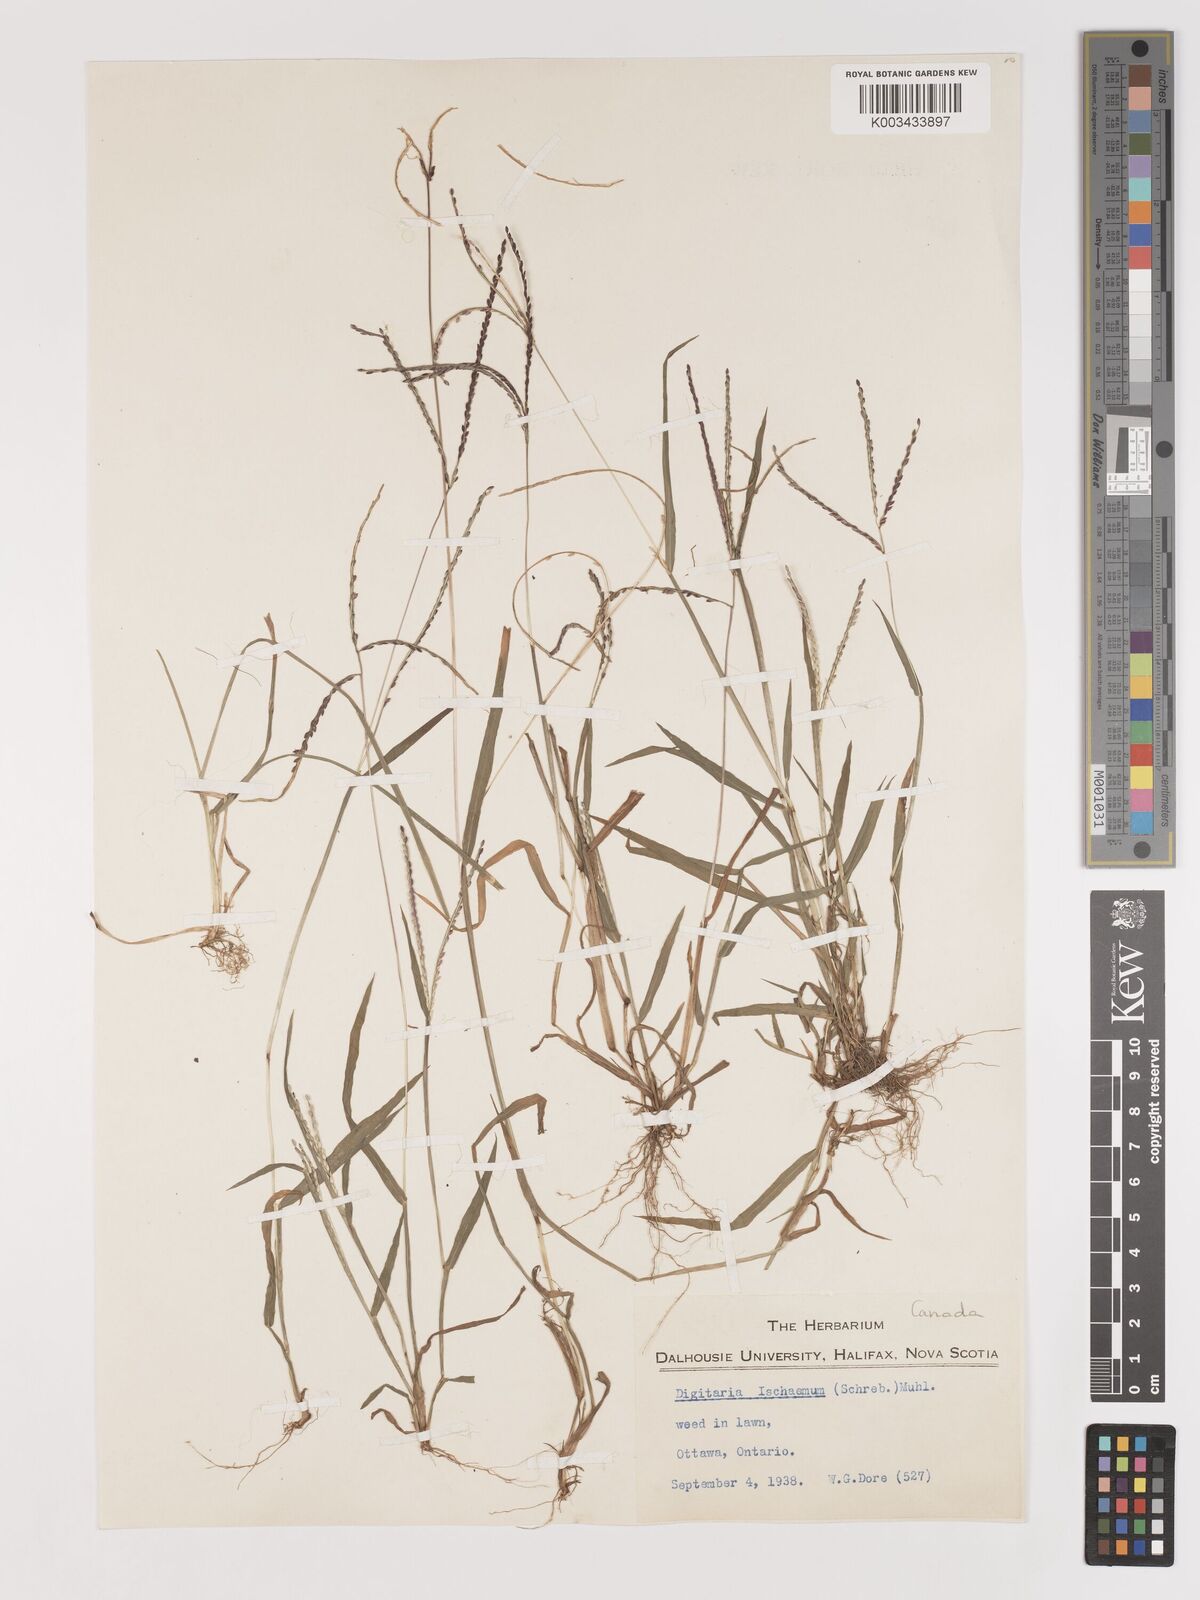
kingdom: Plantae
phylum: Tracheophyta
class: Liliopsida
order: Poales
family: Poaceae
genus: Digitaria
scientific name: Digitaria ischaemum
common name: Smooth crabgrass
